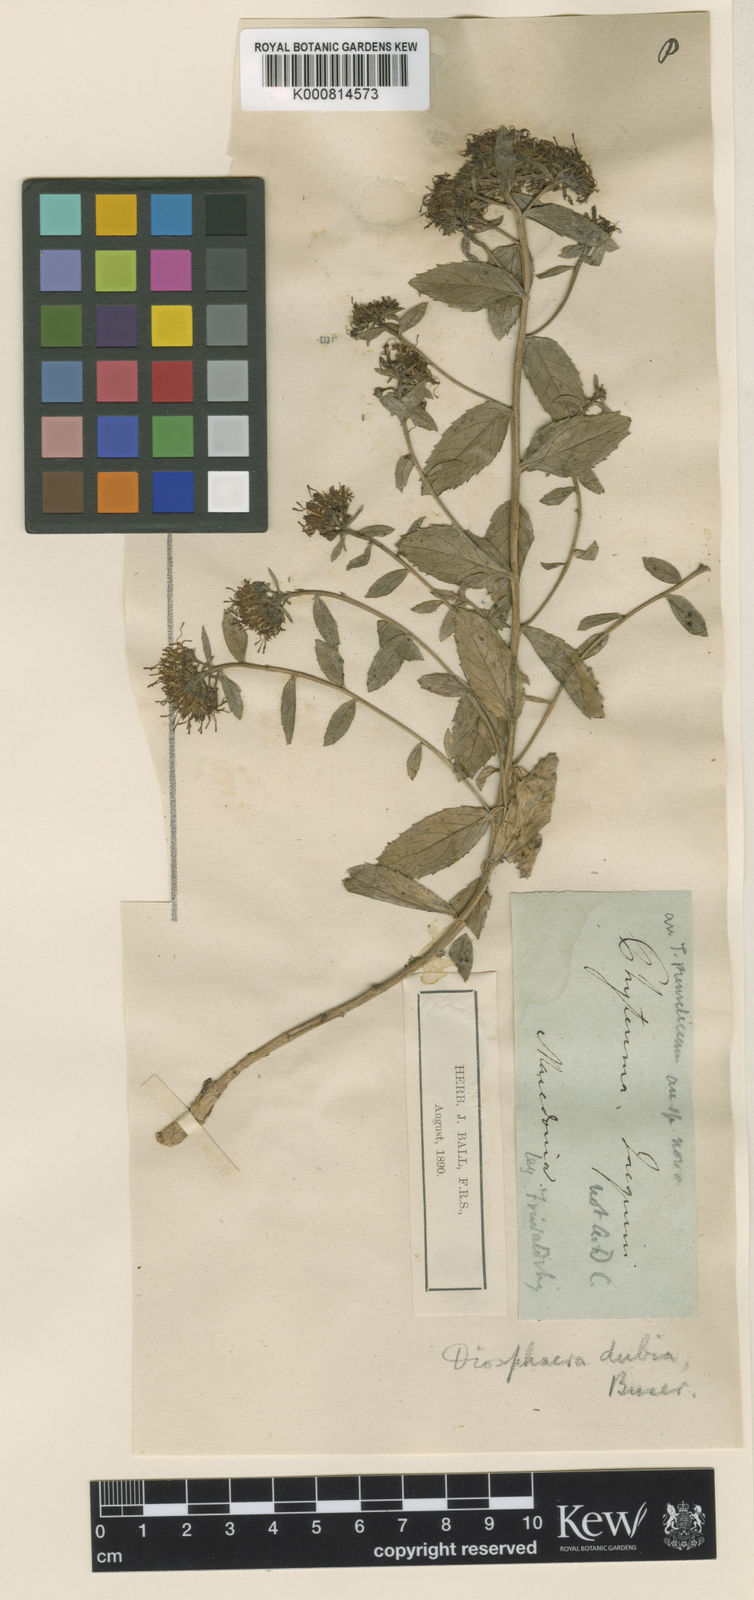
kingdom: Plantae
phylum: Tracheophyta
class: Magnoliopsida
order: Asterales
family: Campanulaceae
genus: Diosphaera
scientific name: Diosphaera
